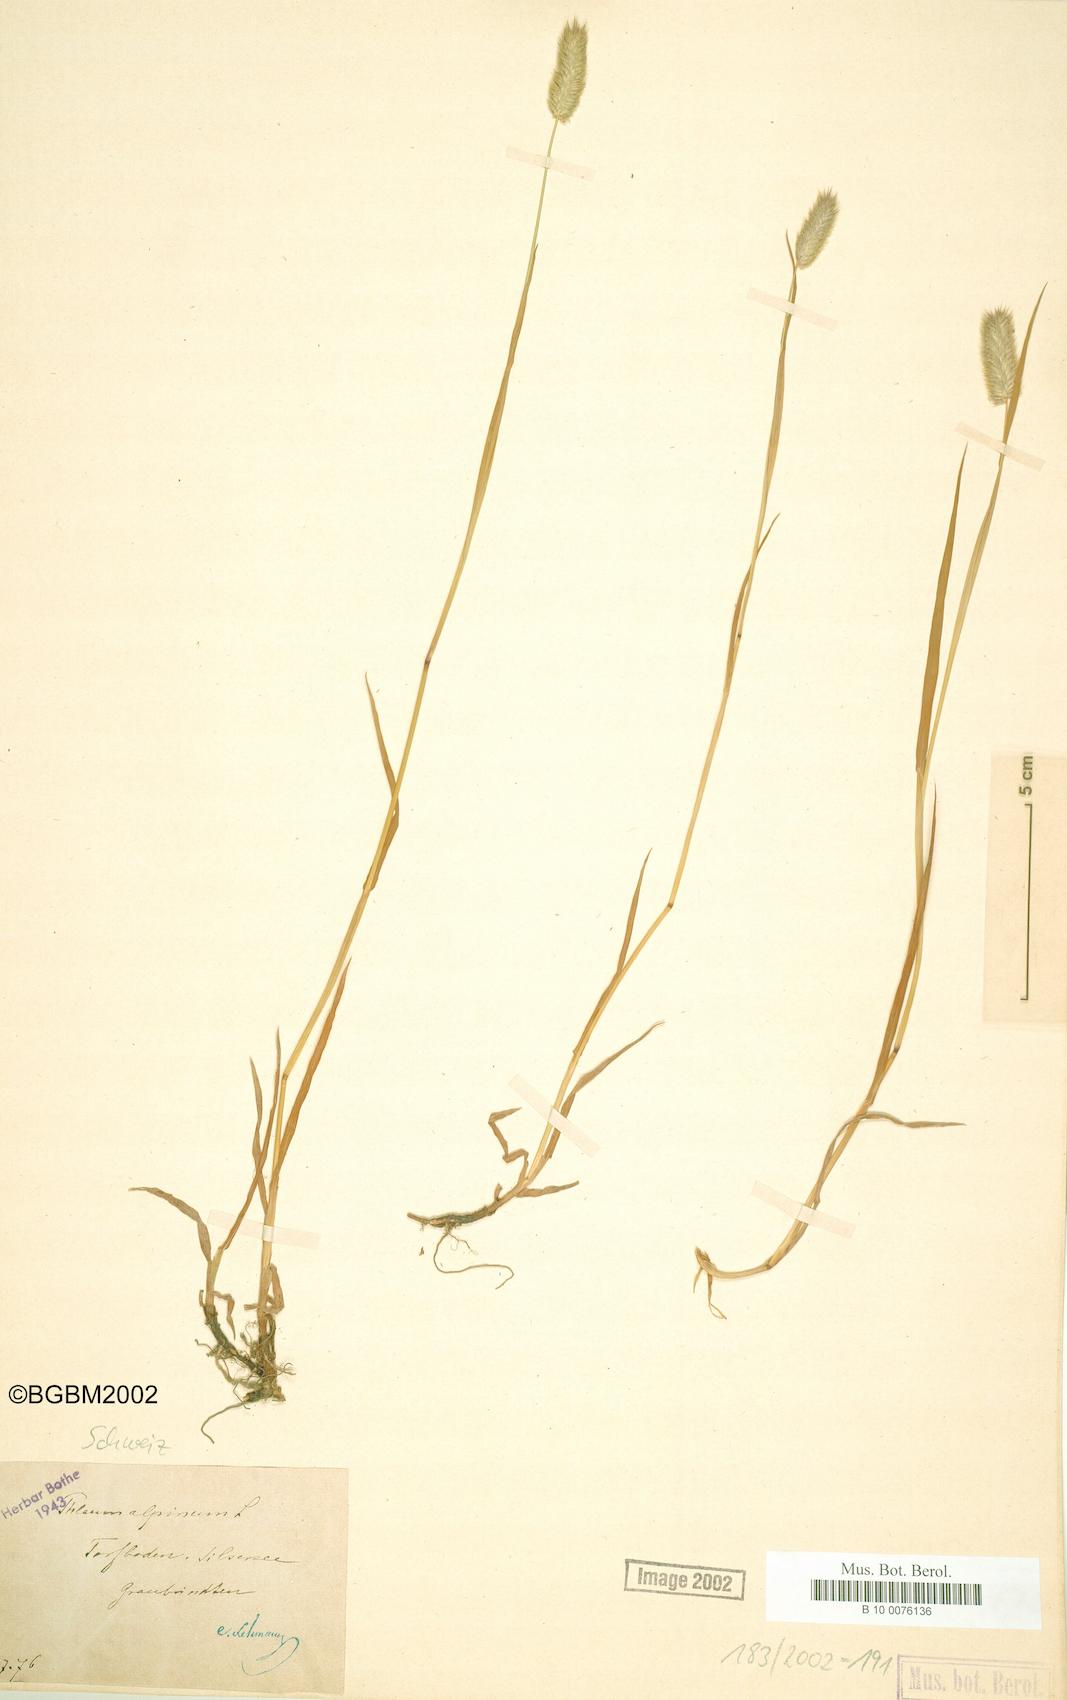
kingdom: Plantae
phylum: Tracheophyta
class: Liliopsida
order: Poales
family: Poaceae
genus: Phleum
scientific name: Phleum alpinum
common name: Alpine cat's-tail
